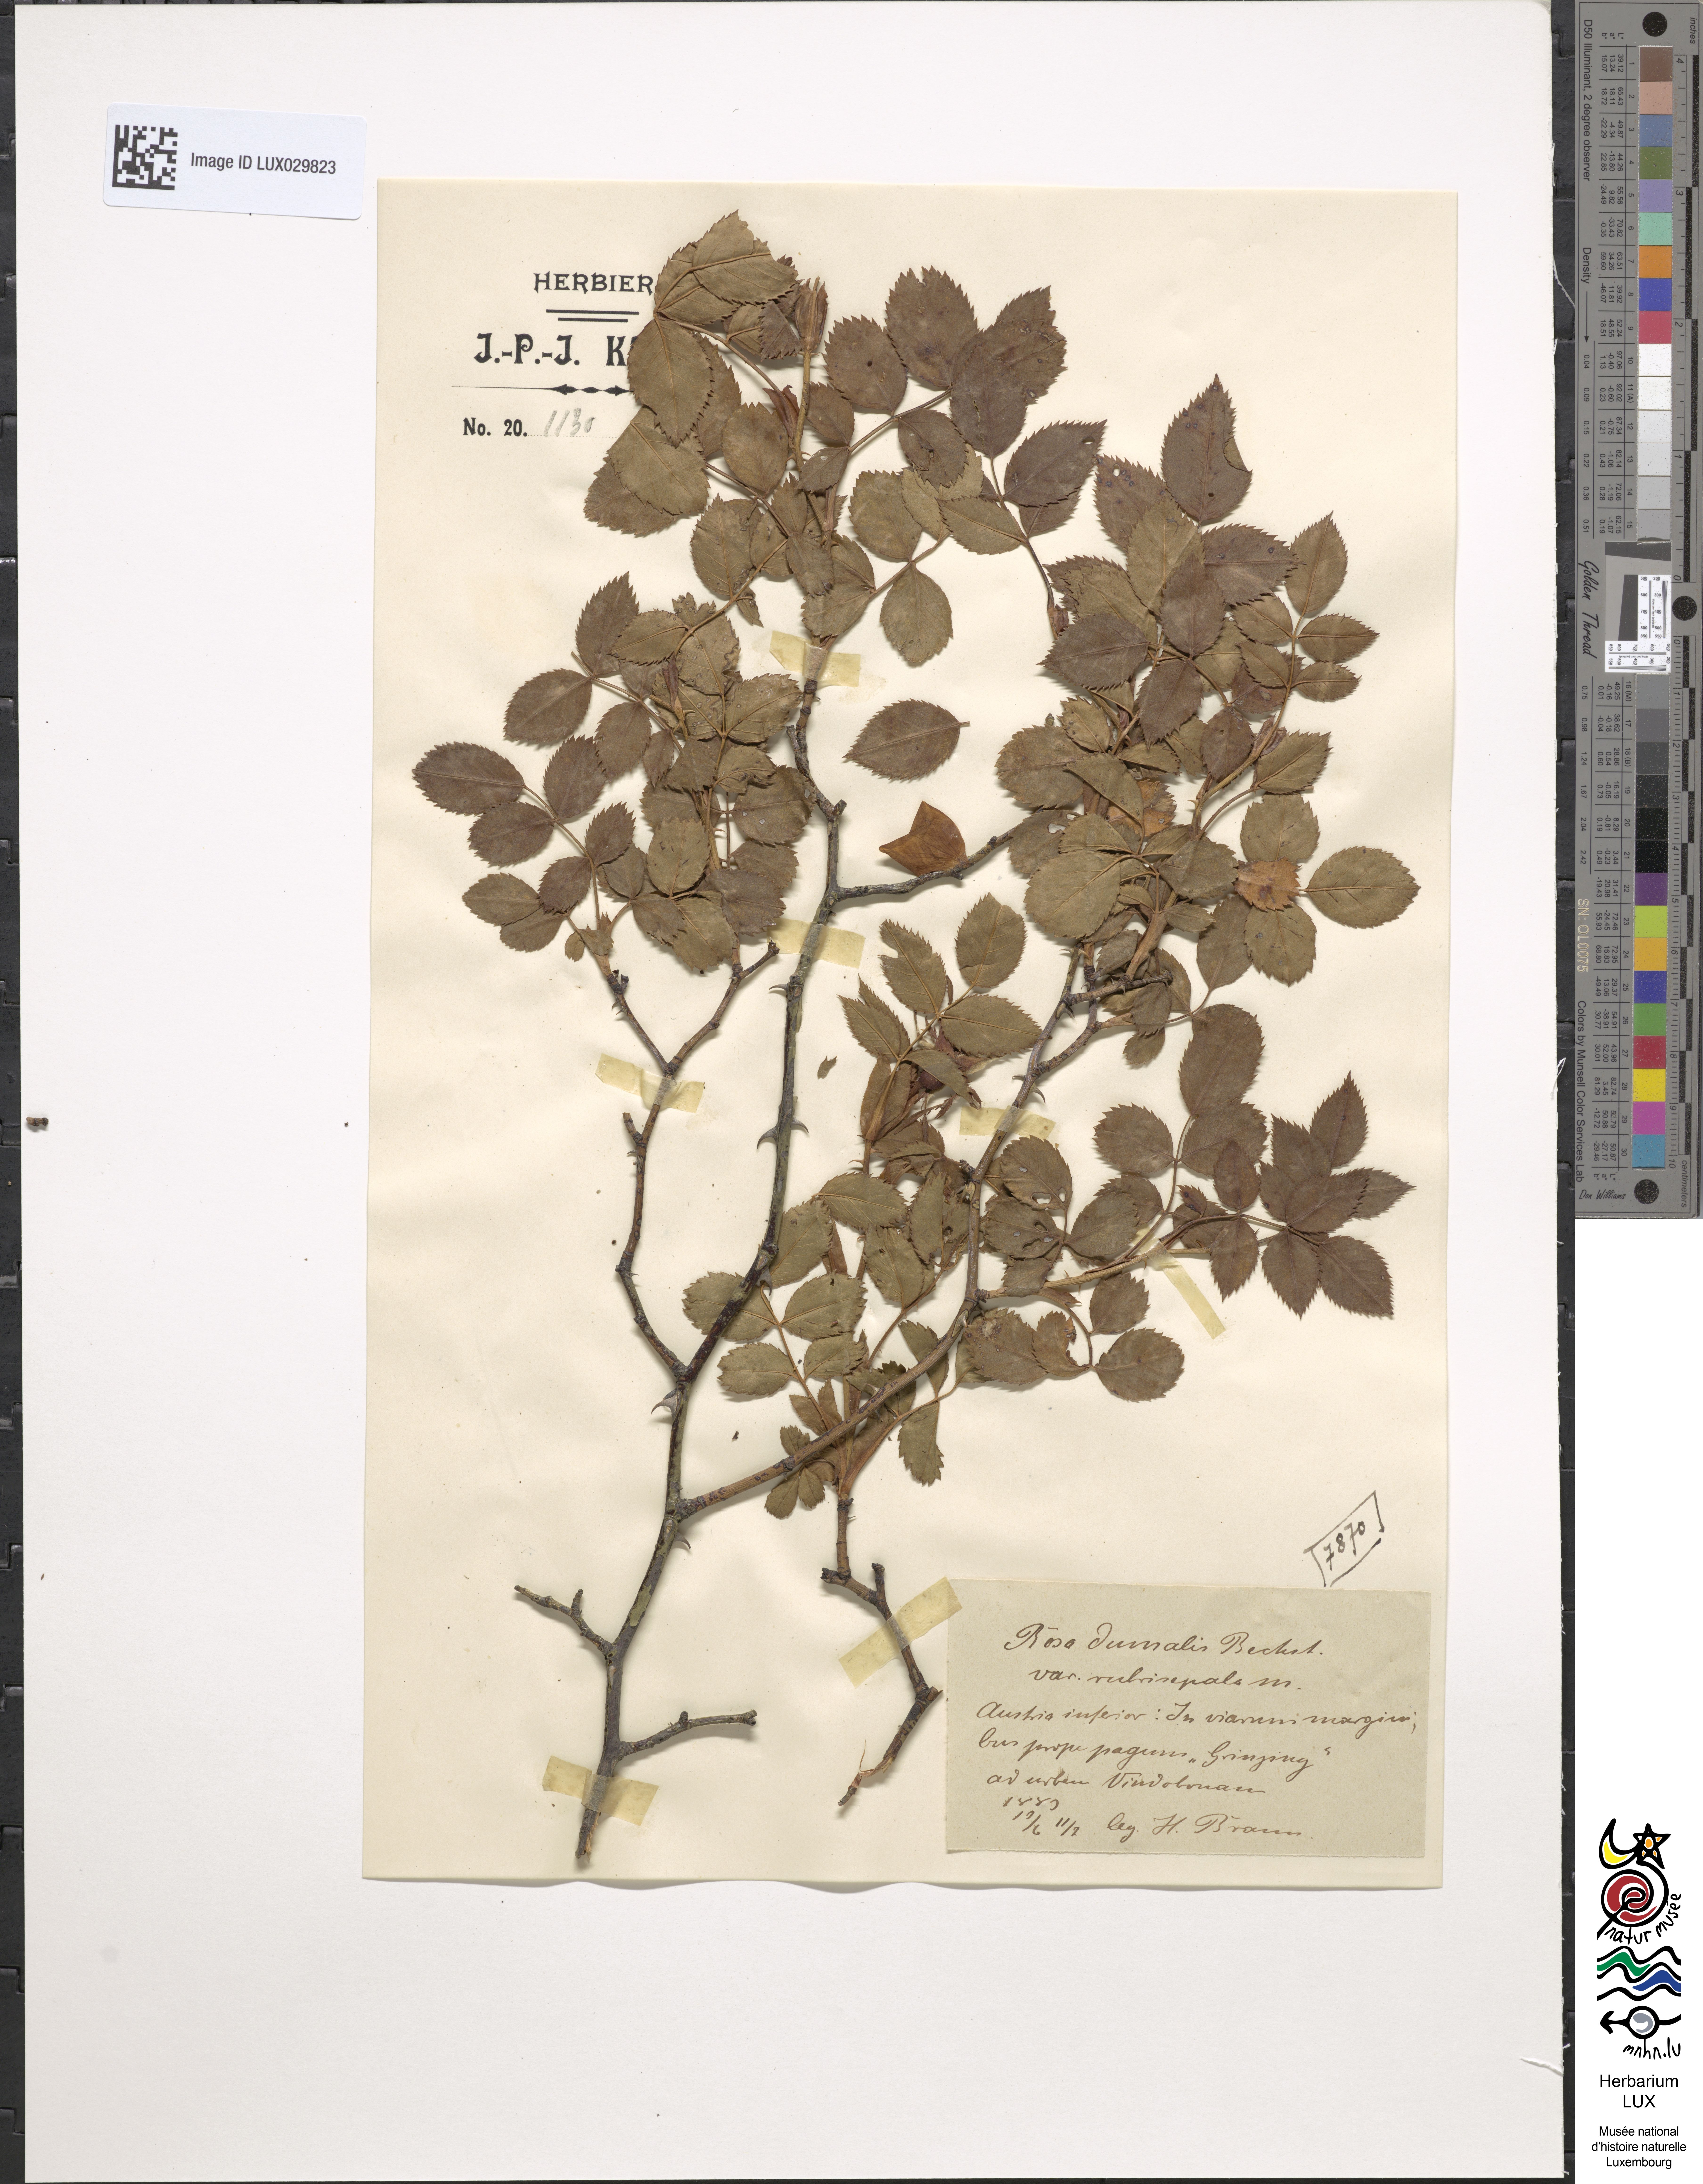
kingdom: Plantae
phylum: Tracheophyta
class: Magnoliopsida
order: Rosales
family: Rosaceae
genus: Rosa
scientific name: Rosa dumalis
